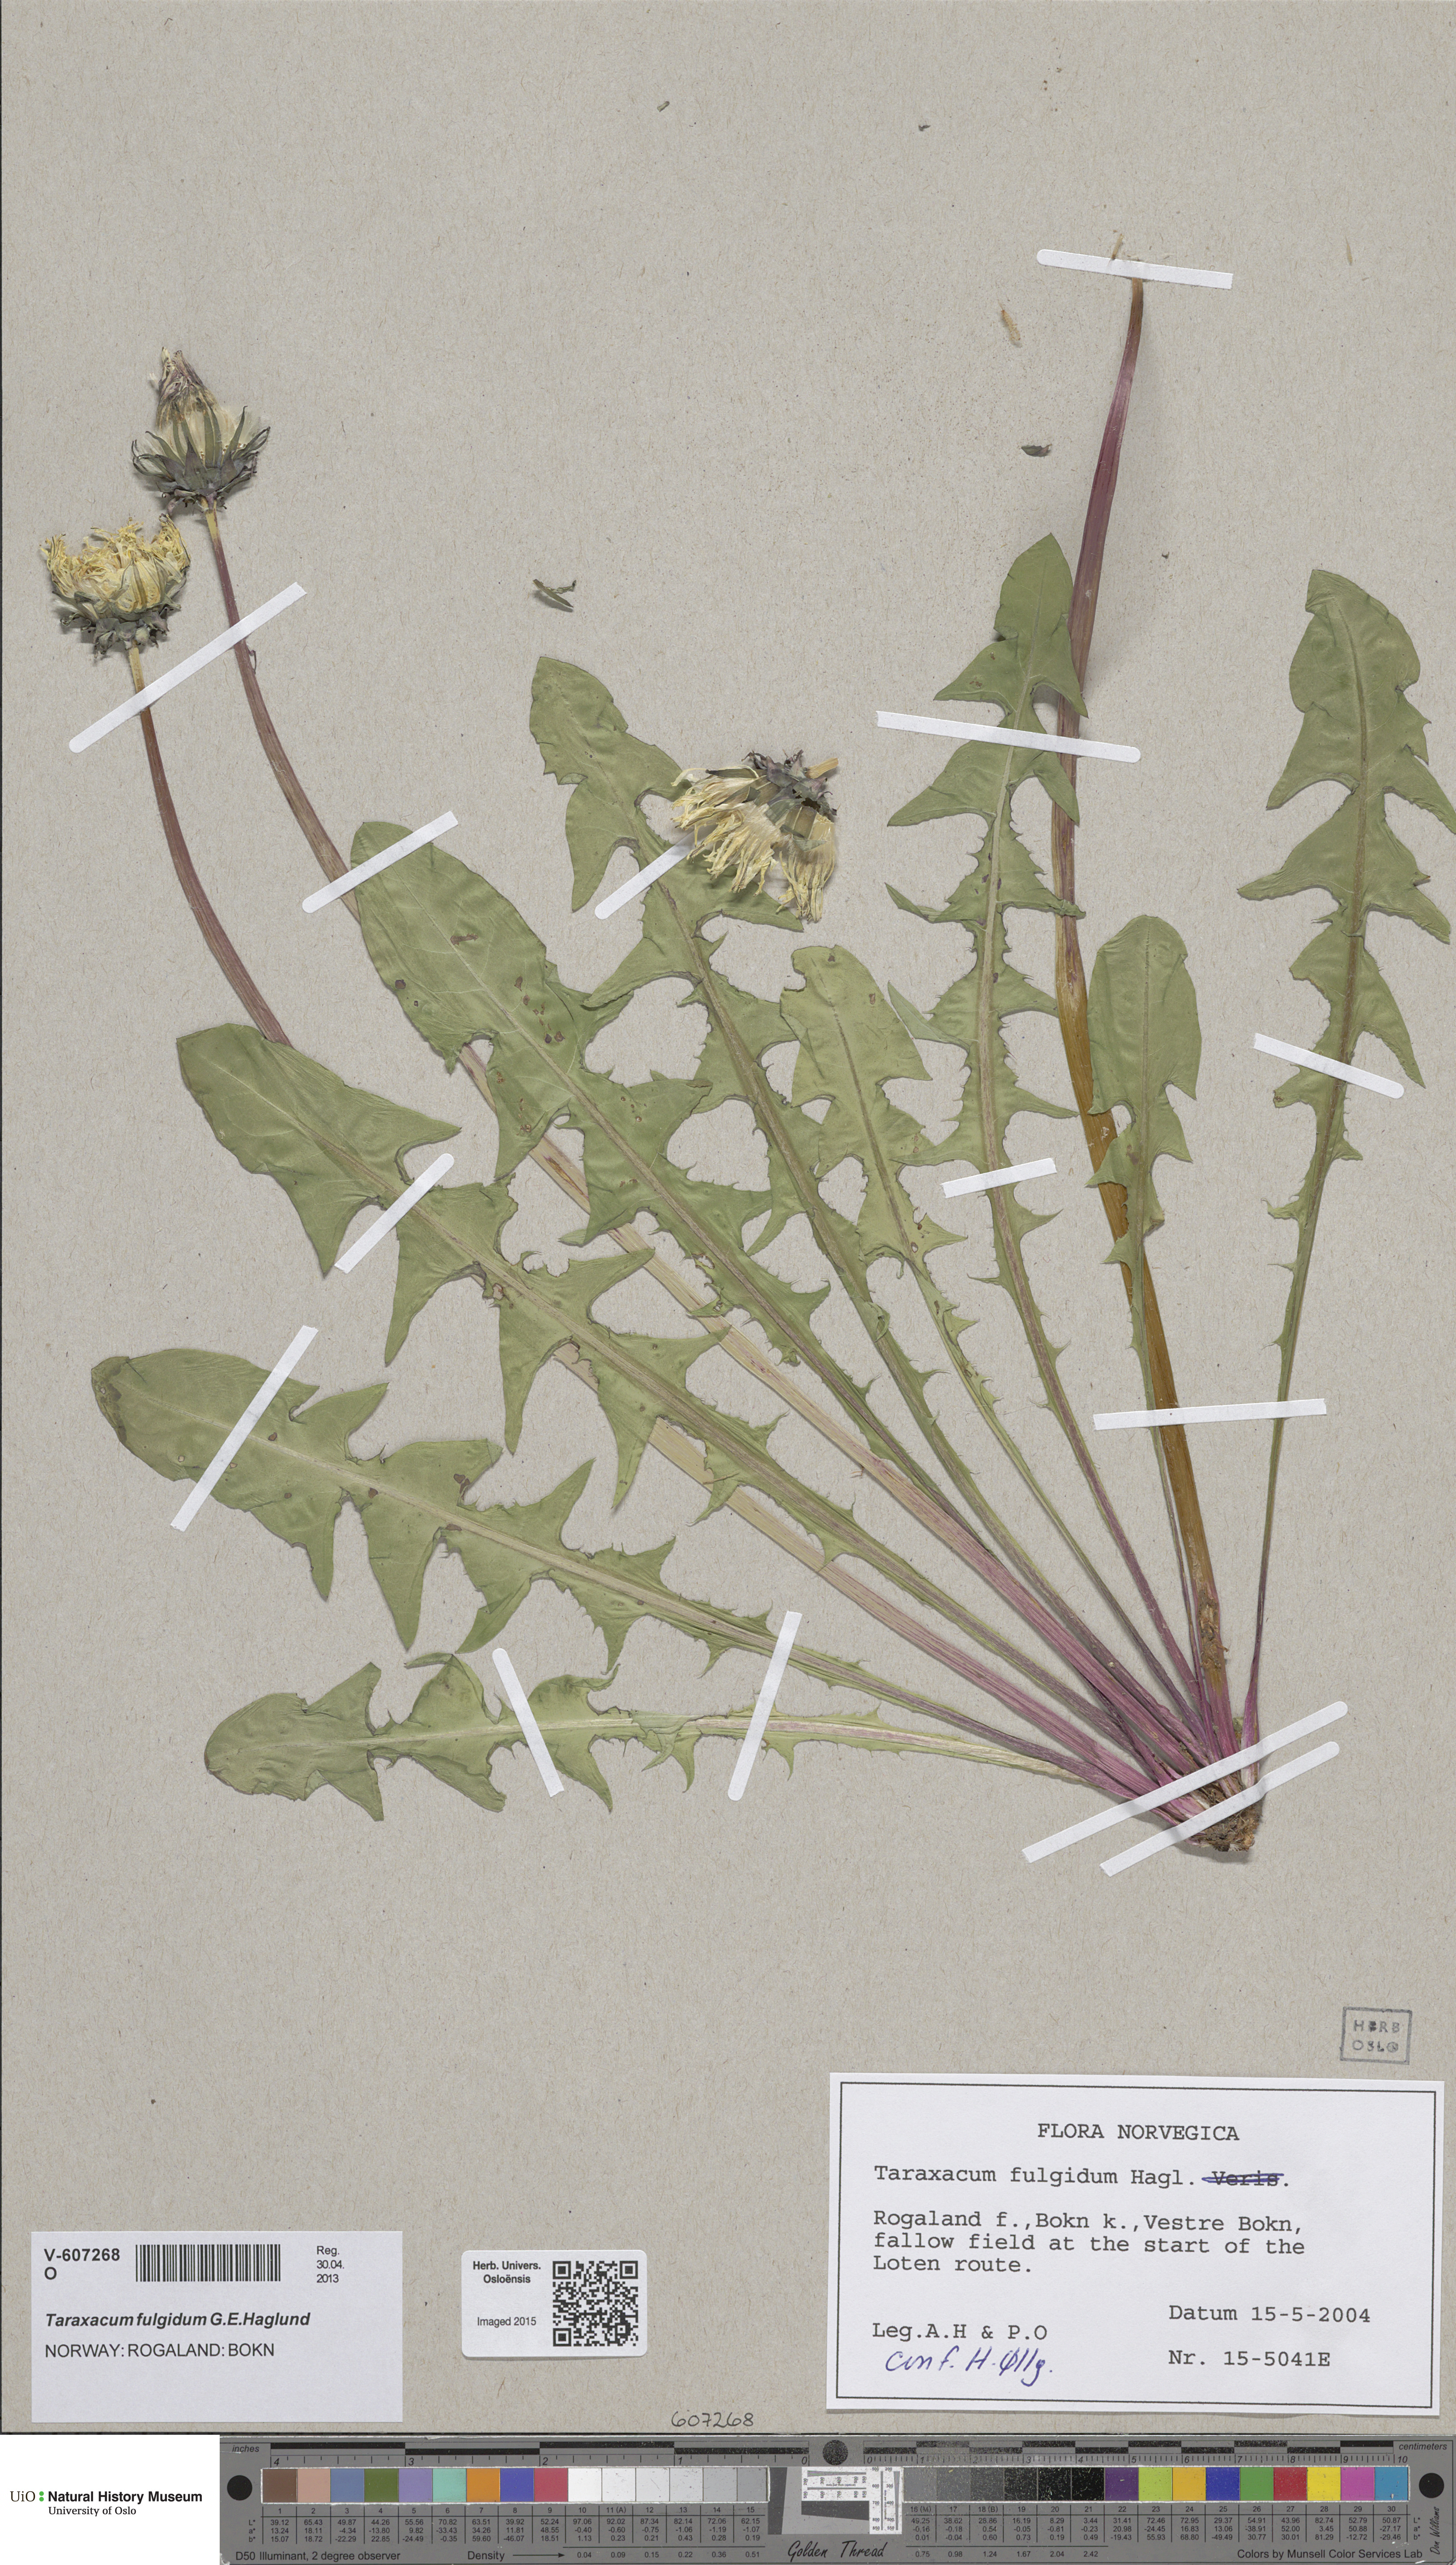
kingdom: Plantae
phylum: Tracheophyta
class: Magnoliopsida
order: Asterales
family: Asteraceae
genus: Taraxacum
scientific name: Taraxacum fulgidum
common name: Bright dandelion
